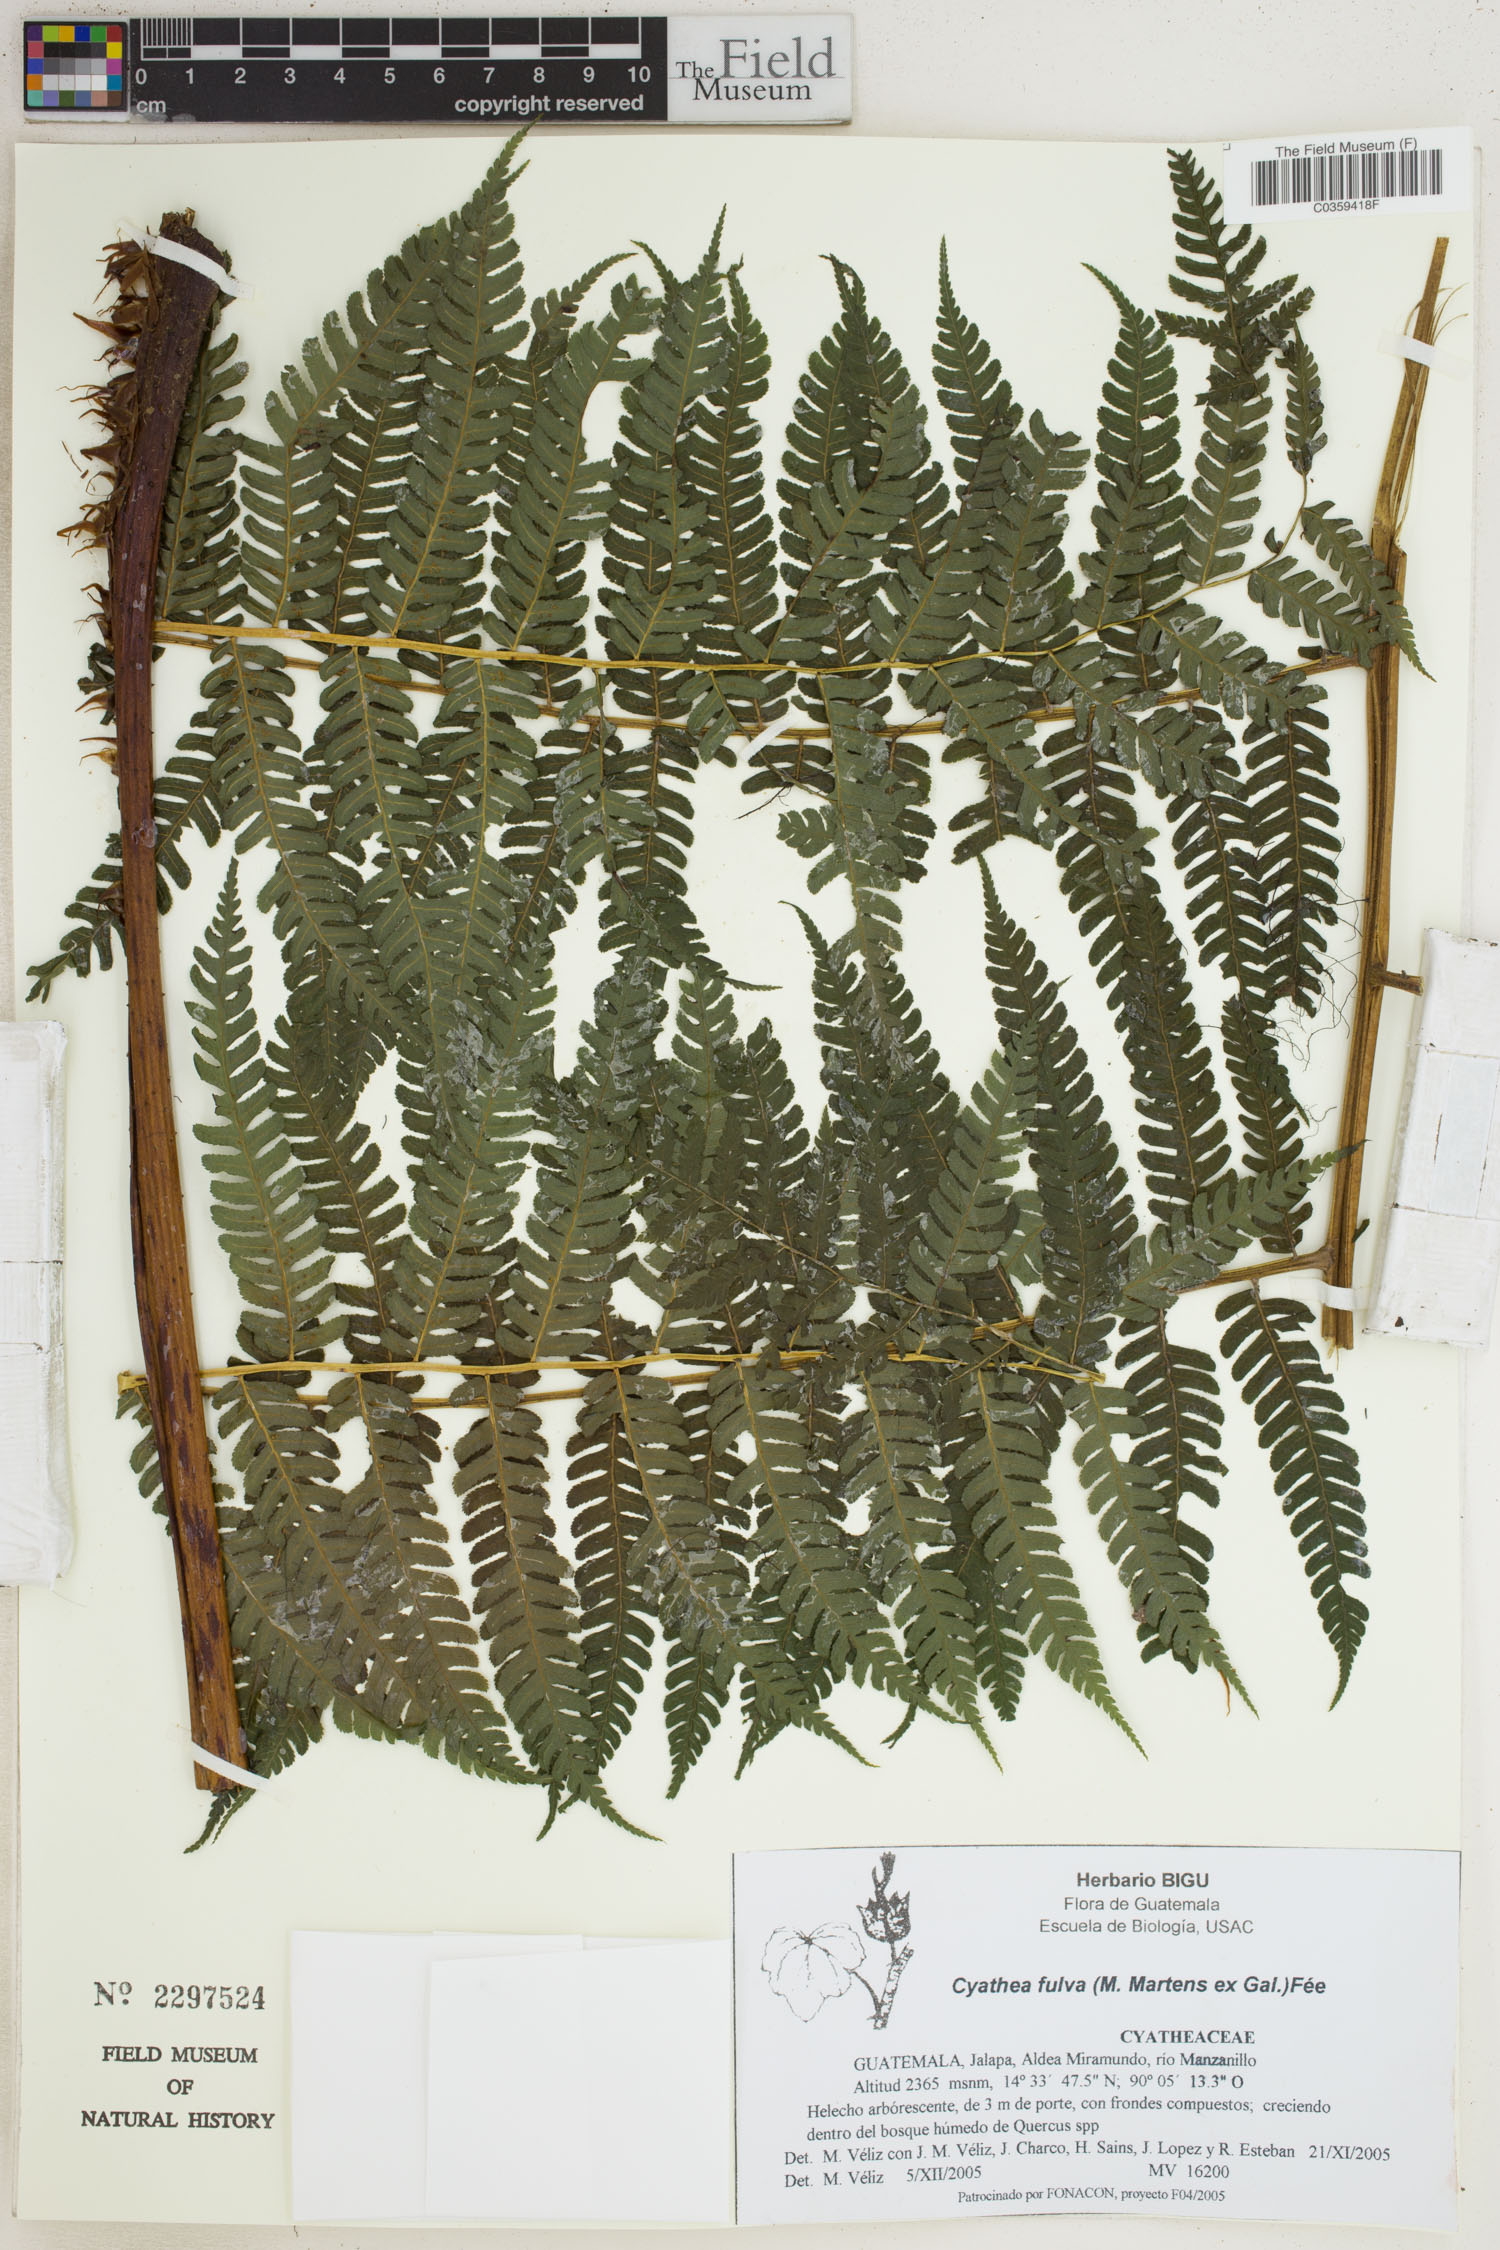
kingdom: Plantae
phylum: Tracheophyta
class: Polypodiopsida
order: Cyatheales
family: Cyatheaceae
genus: Cyathea
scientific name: Cyathea fulva
